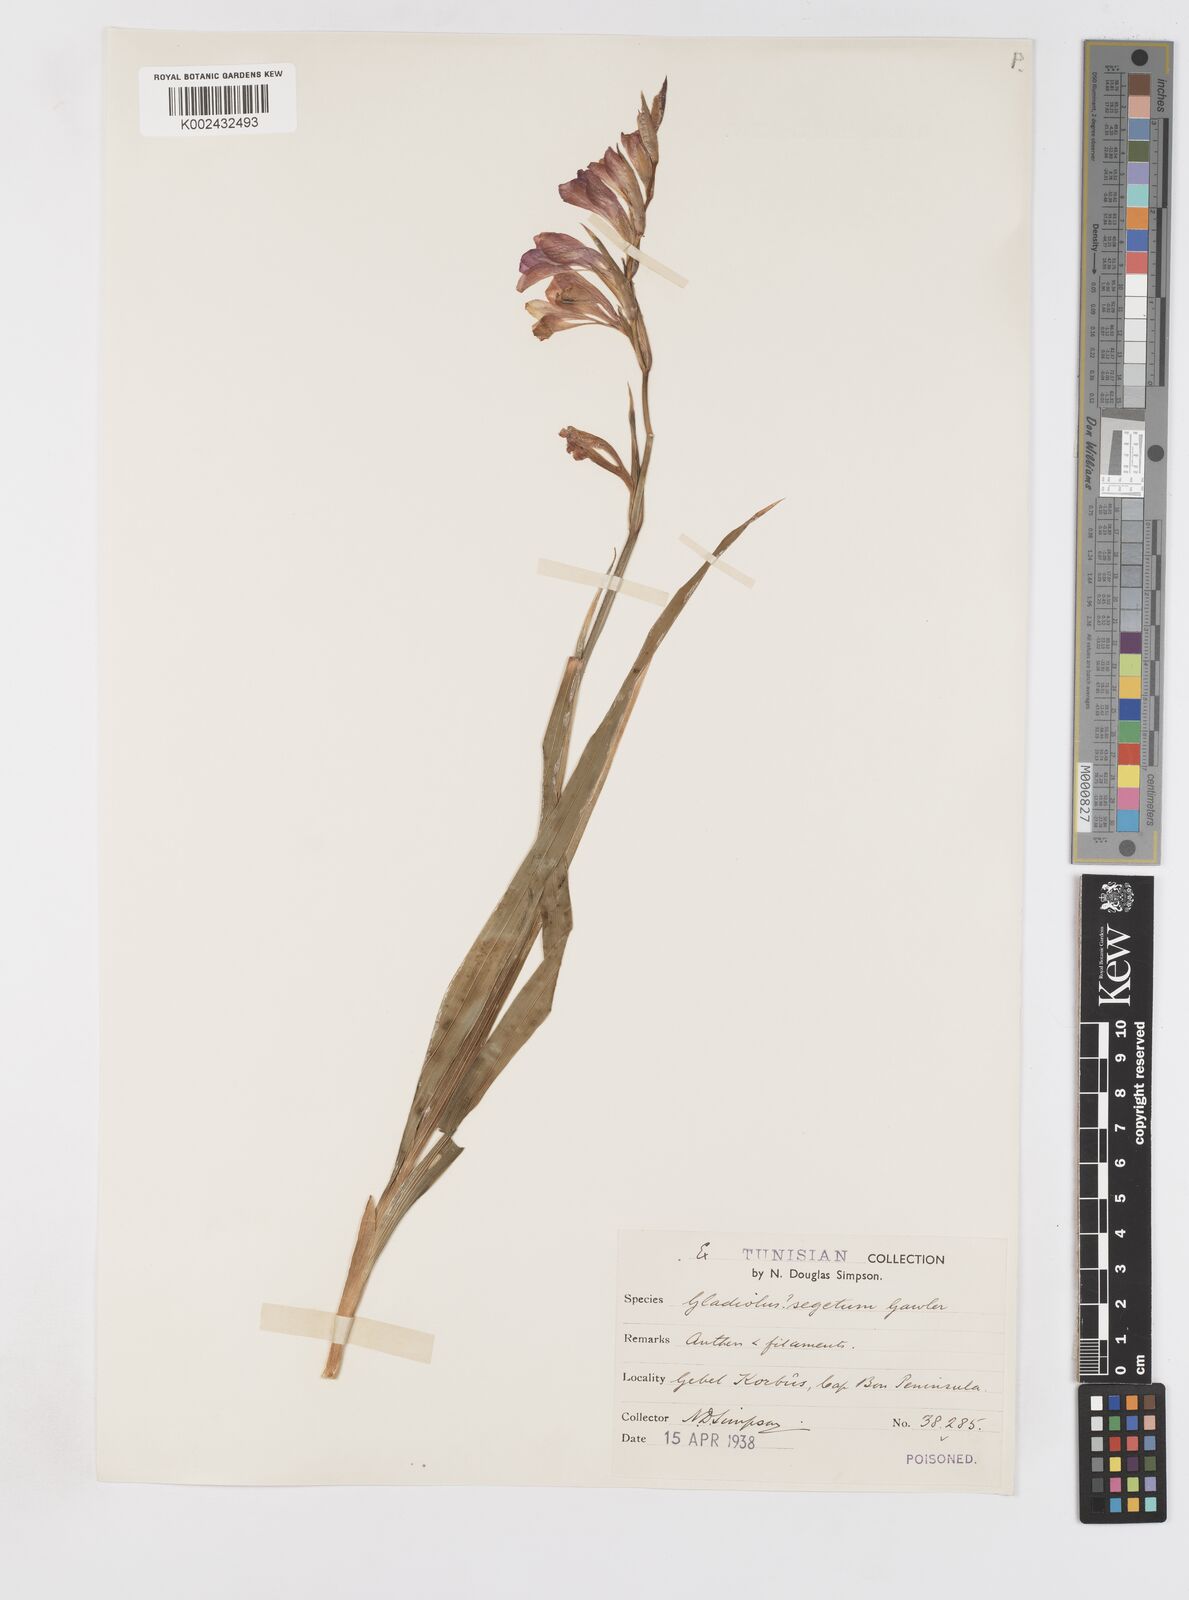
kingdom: Plantae
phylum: Tracheophyta
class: Liliopsida
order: Asparagales
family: Iridaceae
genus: Gladiolus
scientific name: Gladiolus italicus
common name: Field gladiolus
